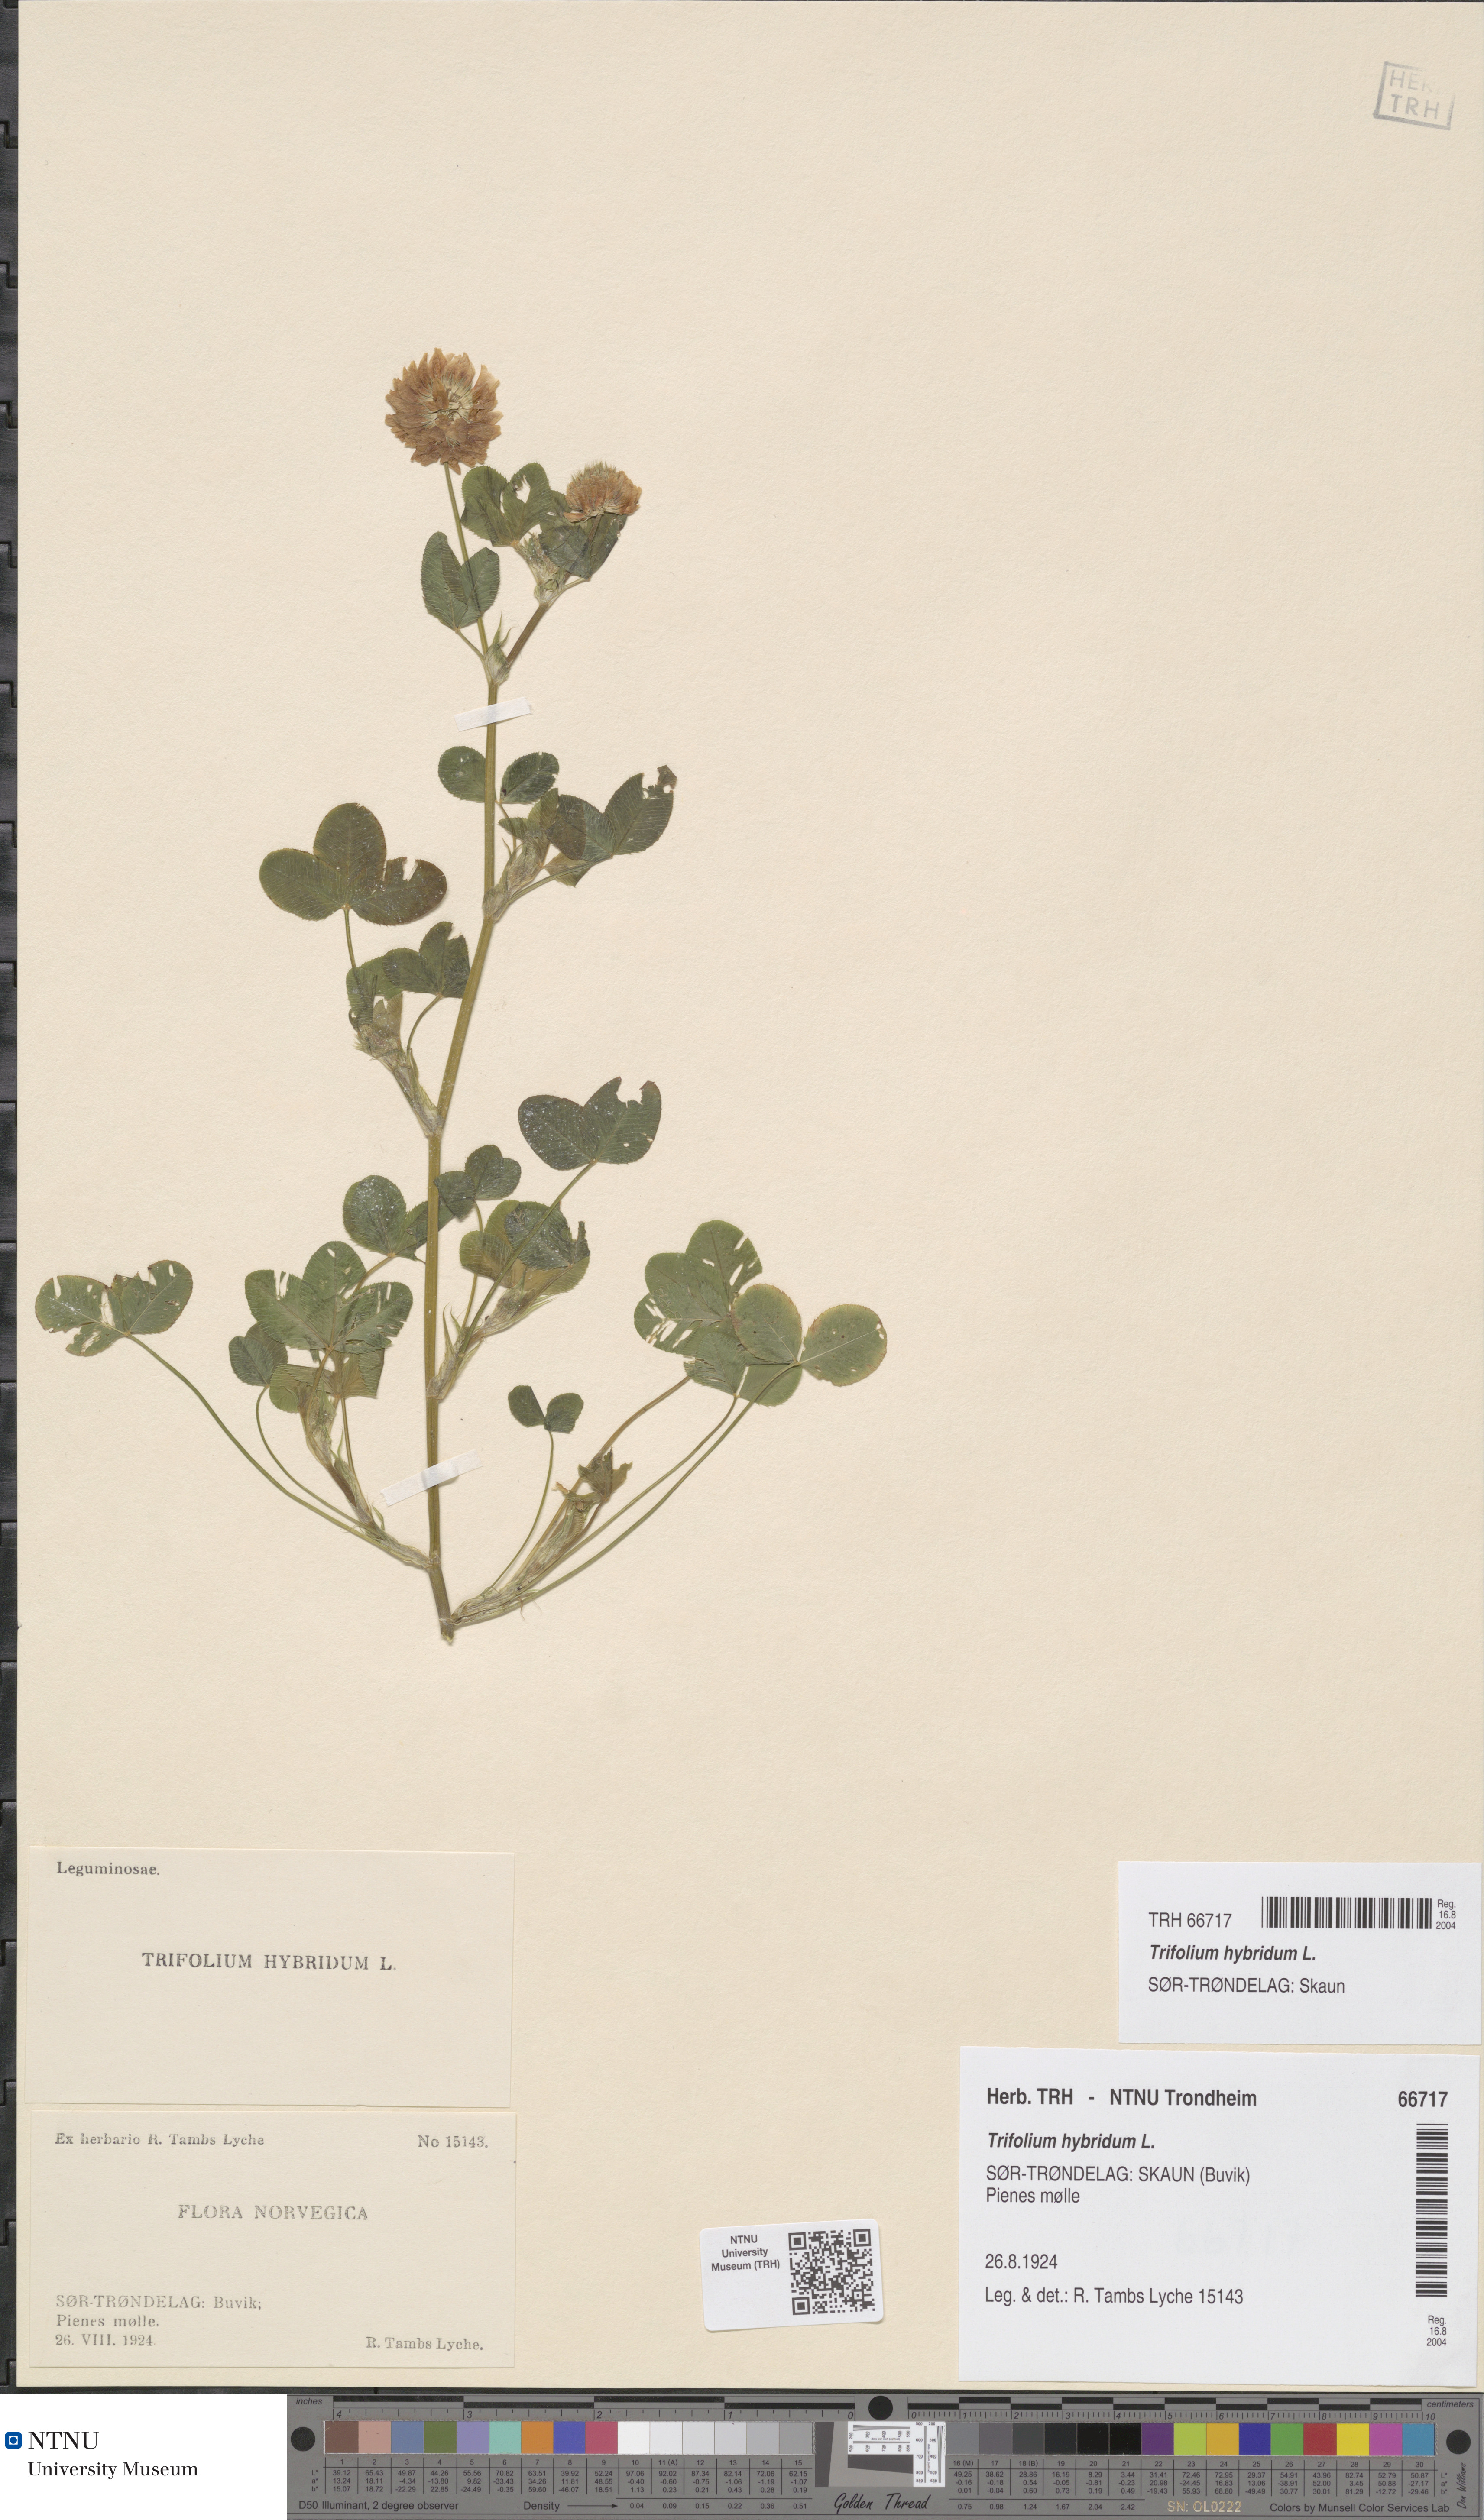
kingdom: Plantae
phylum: Tracheophyta
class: Magnoliopsida
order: Fabales
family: Fabaceae
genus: Trifolium
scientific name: Trifolium hybridum
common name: Alsike clover
